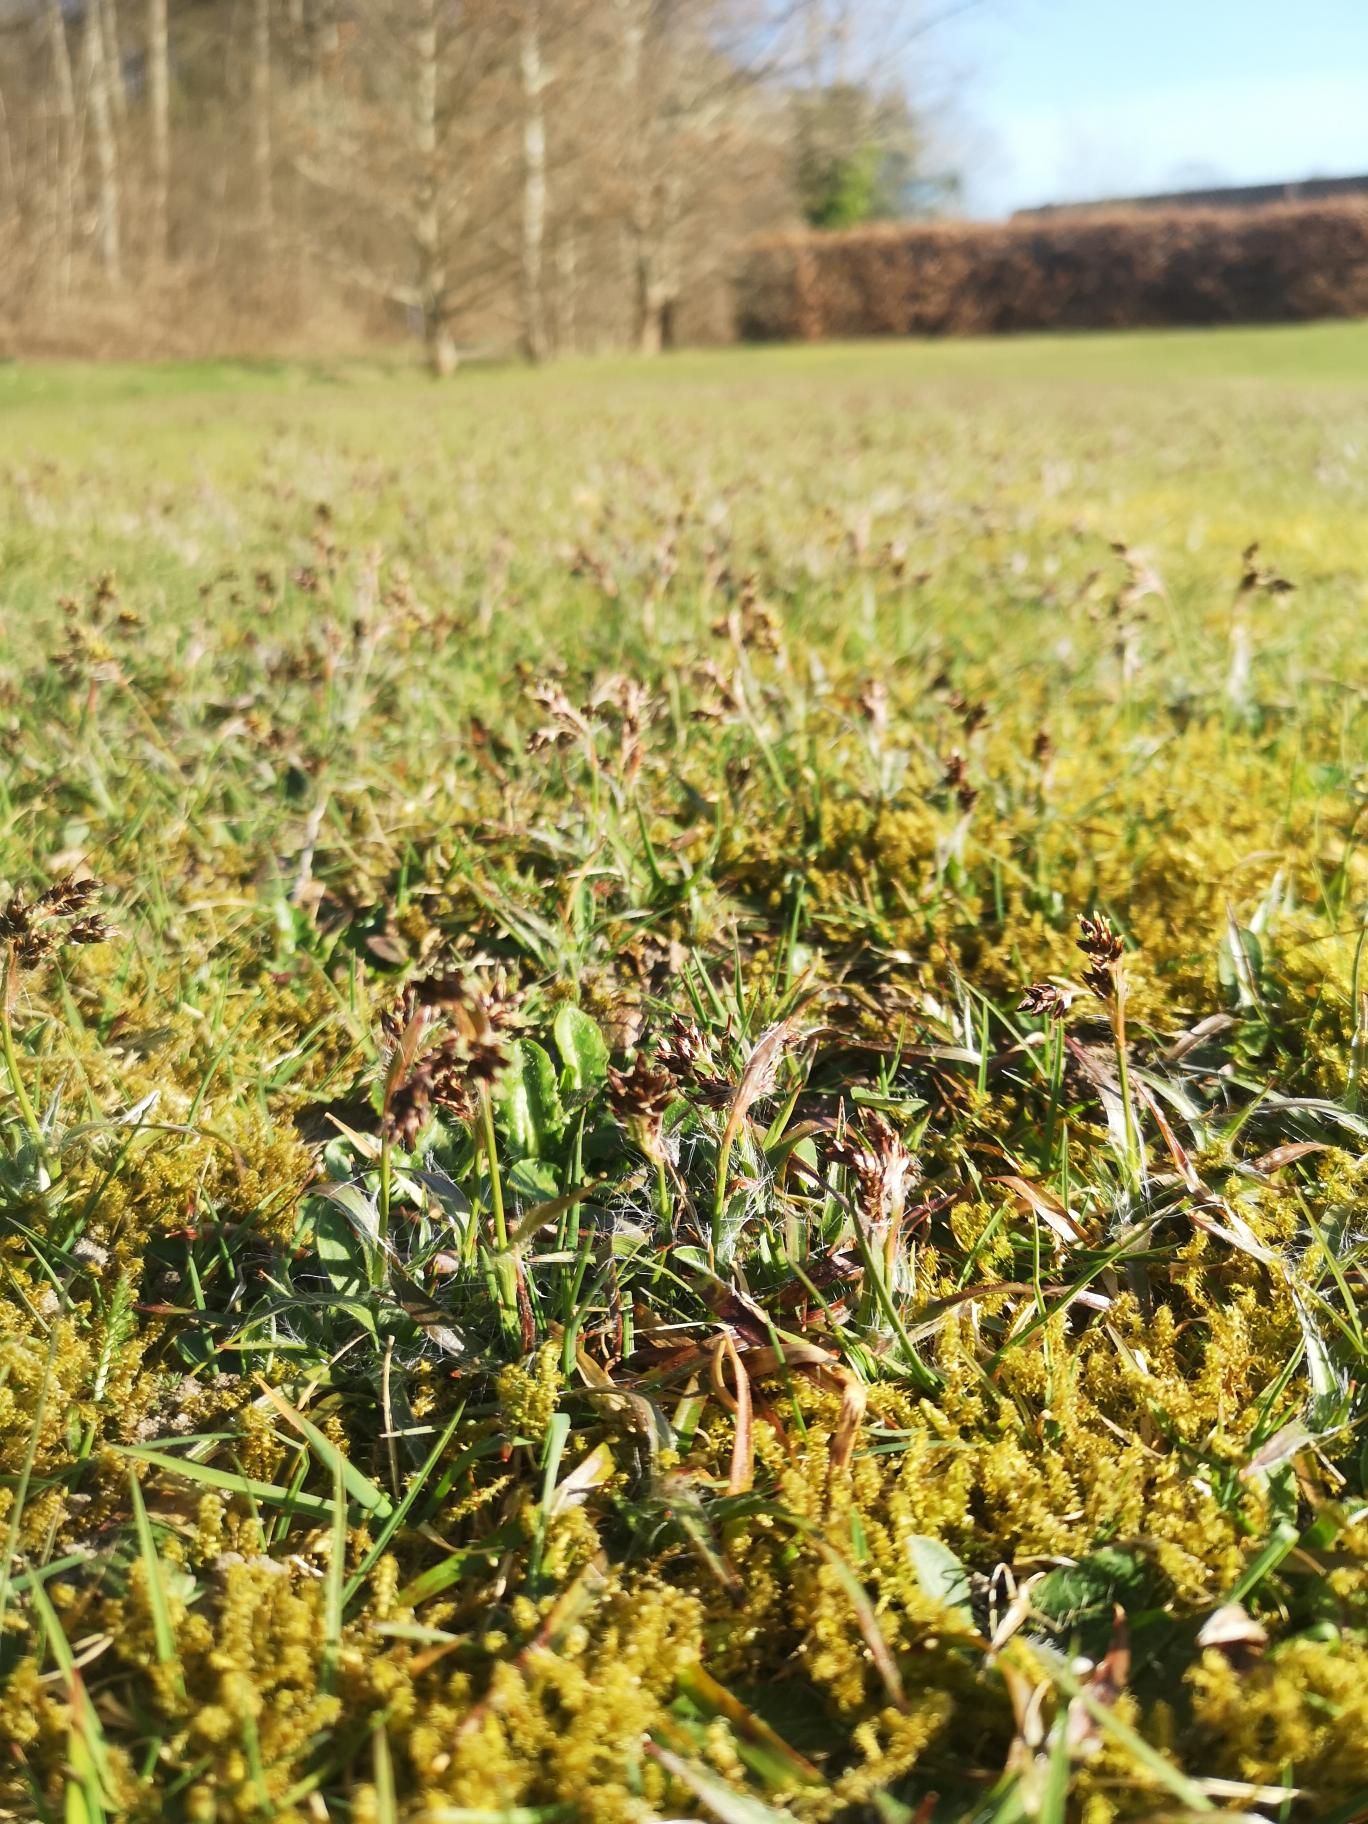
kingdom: Plantae
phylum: Tracheophyta
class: Liliopsida
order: Poales
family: Juncaceae
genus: Luzula
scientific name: Luzula campestris
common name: Mark-frytle
